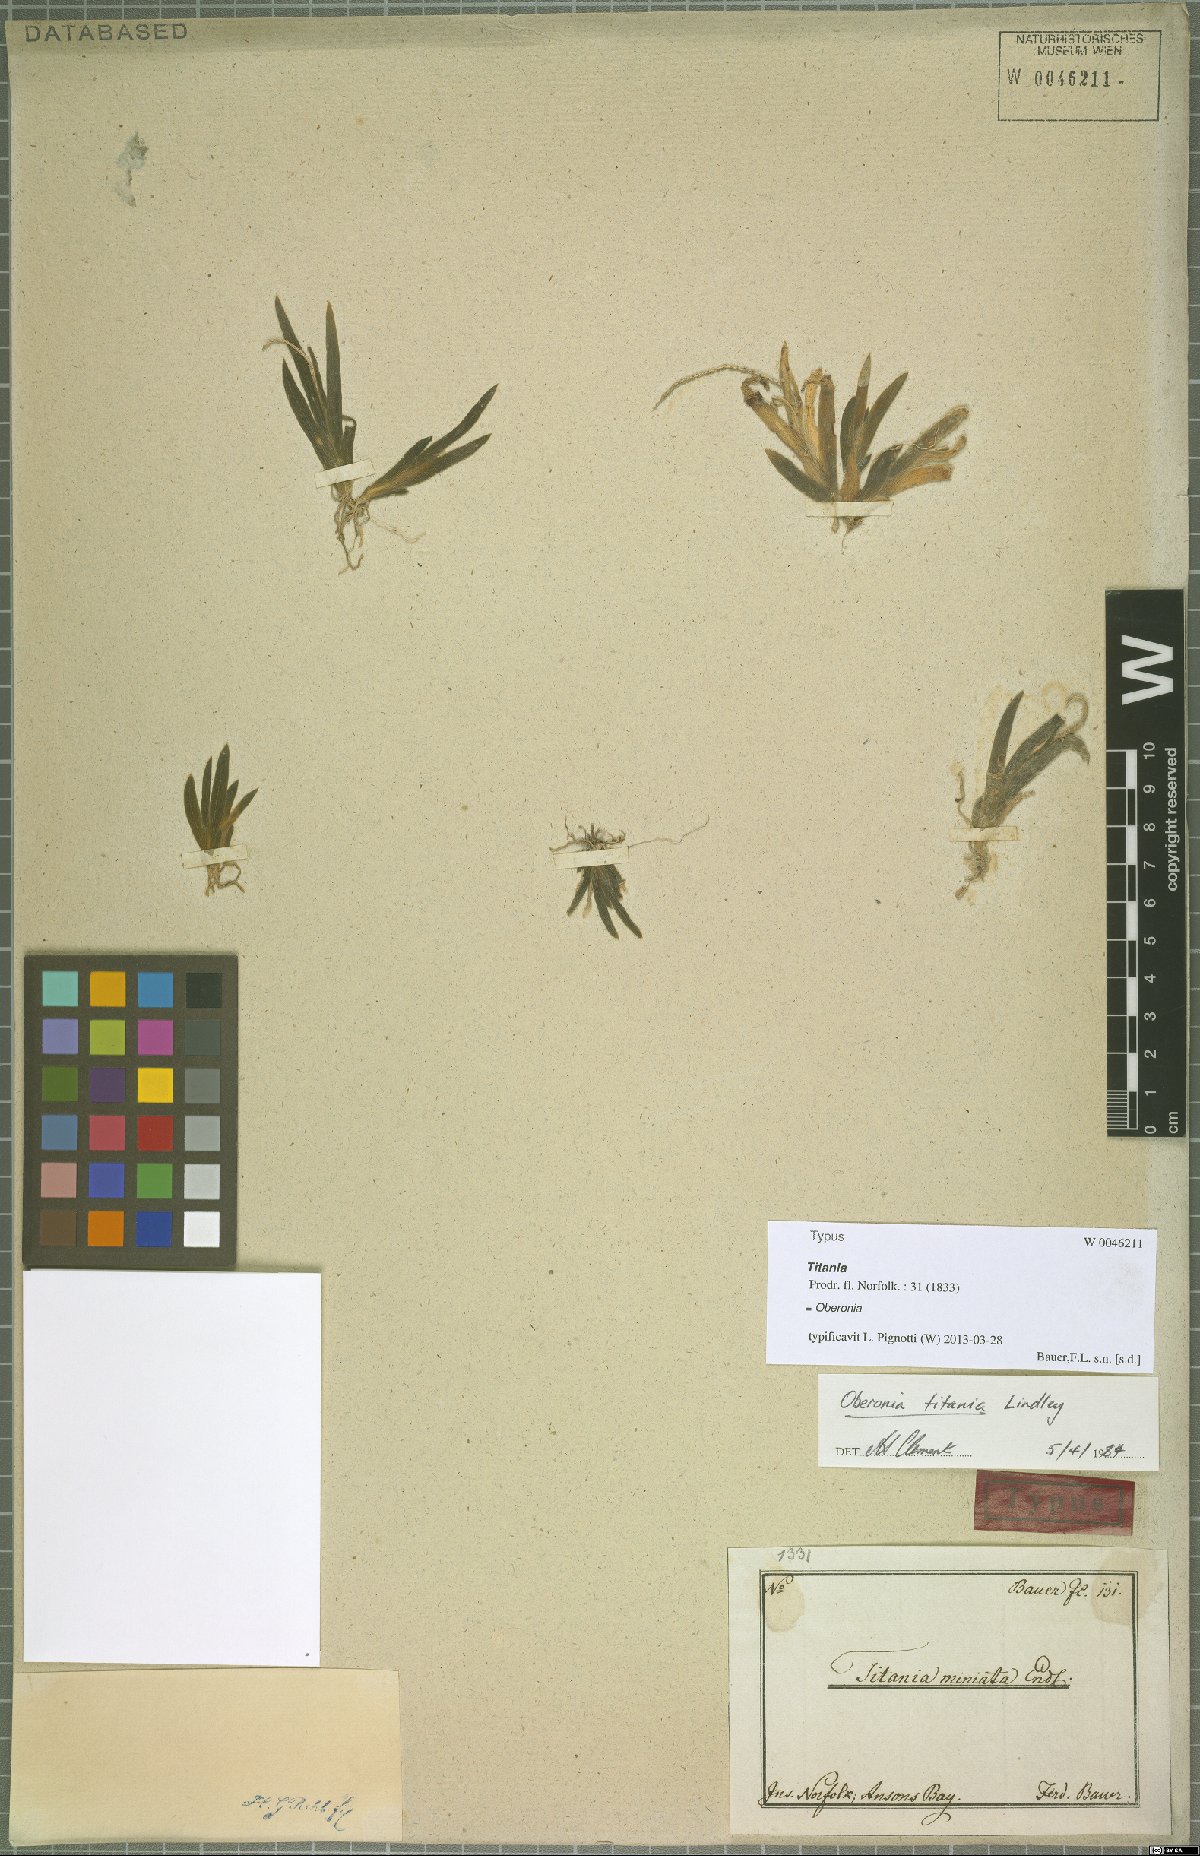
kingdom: Plantae
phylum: Tracheophyta
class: Liliopsida
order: Asparagales
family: Orchidaceae
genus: Oberonia
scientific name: Oberonia titania
